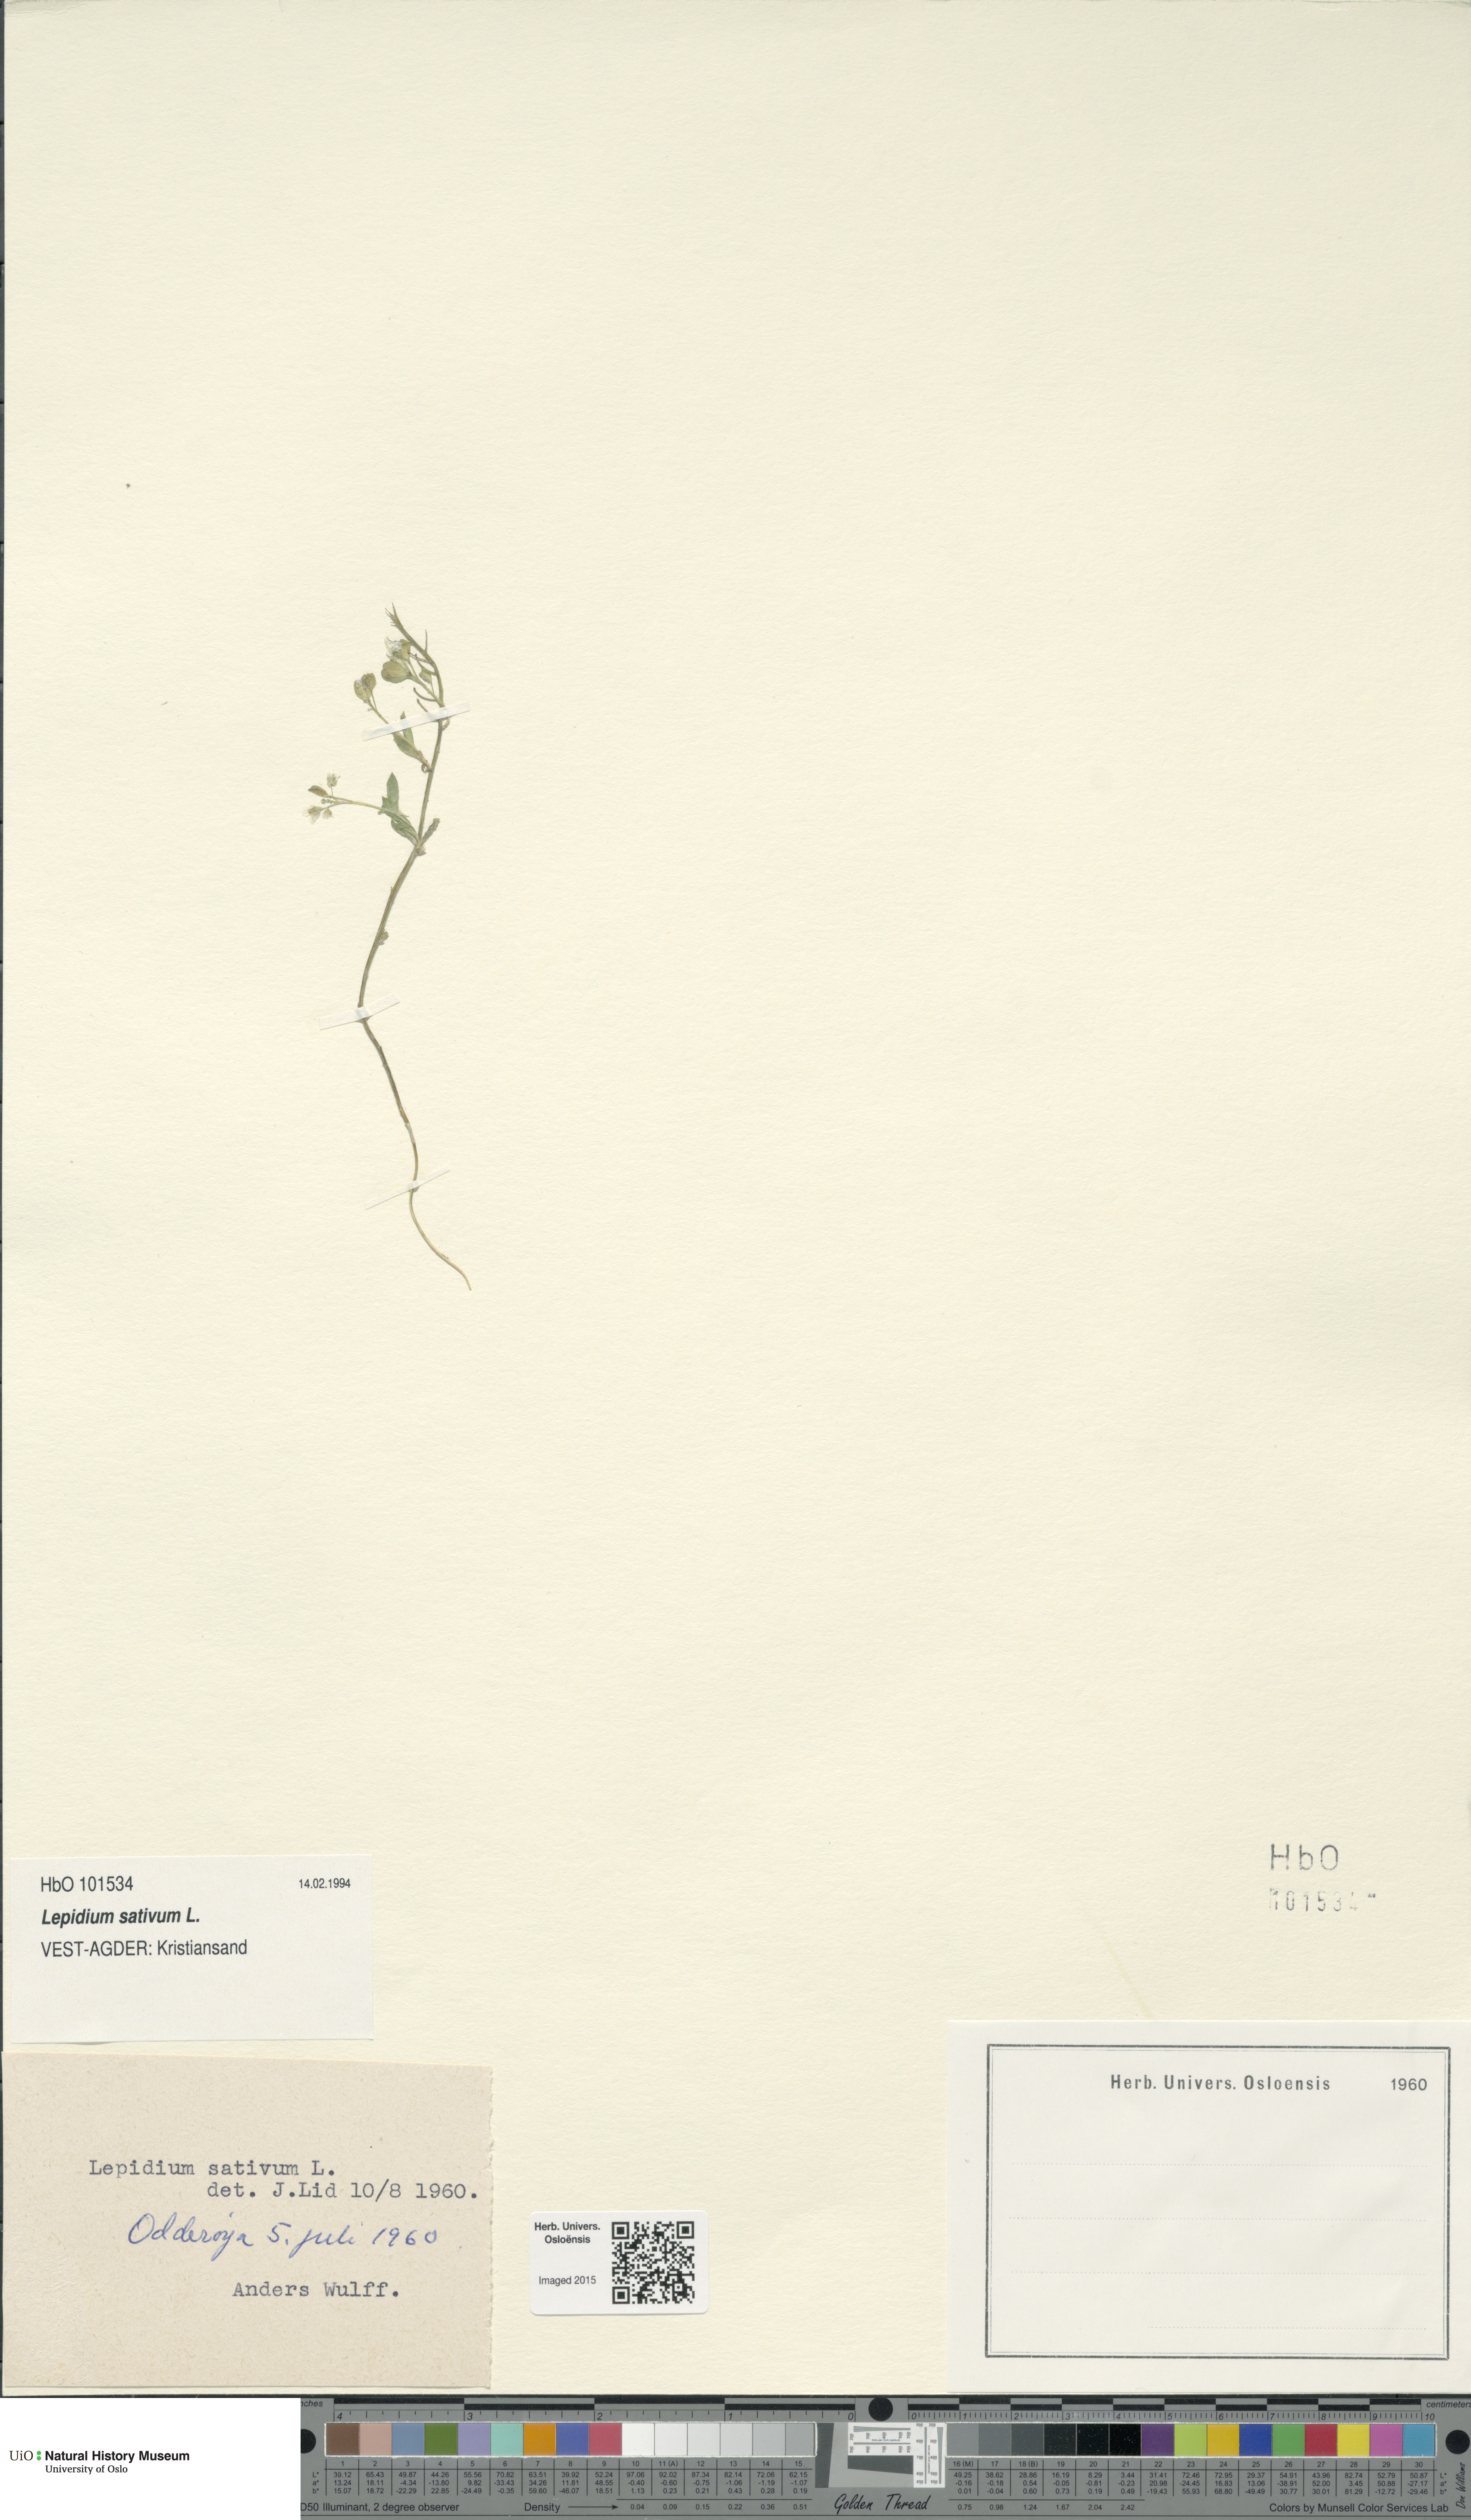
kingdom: Plantae
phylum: Tracheophyta
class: Magnoliopsida
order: Brassicales
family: Brassicaceae
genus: Lepidium
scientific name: Lepidium sativum
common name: Garden cress
